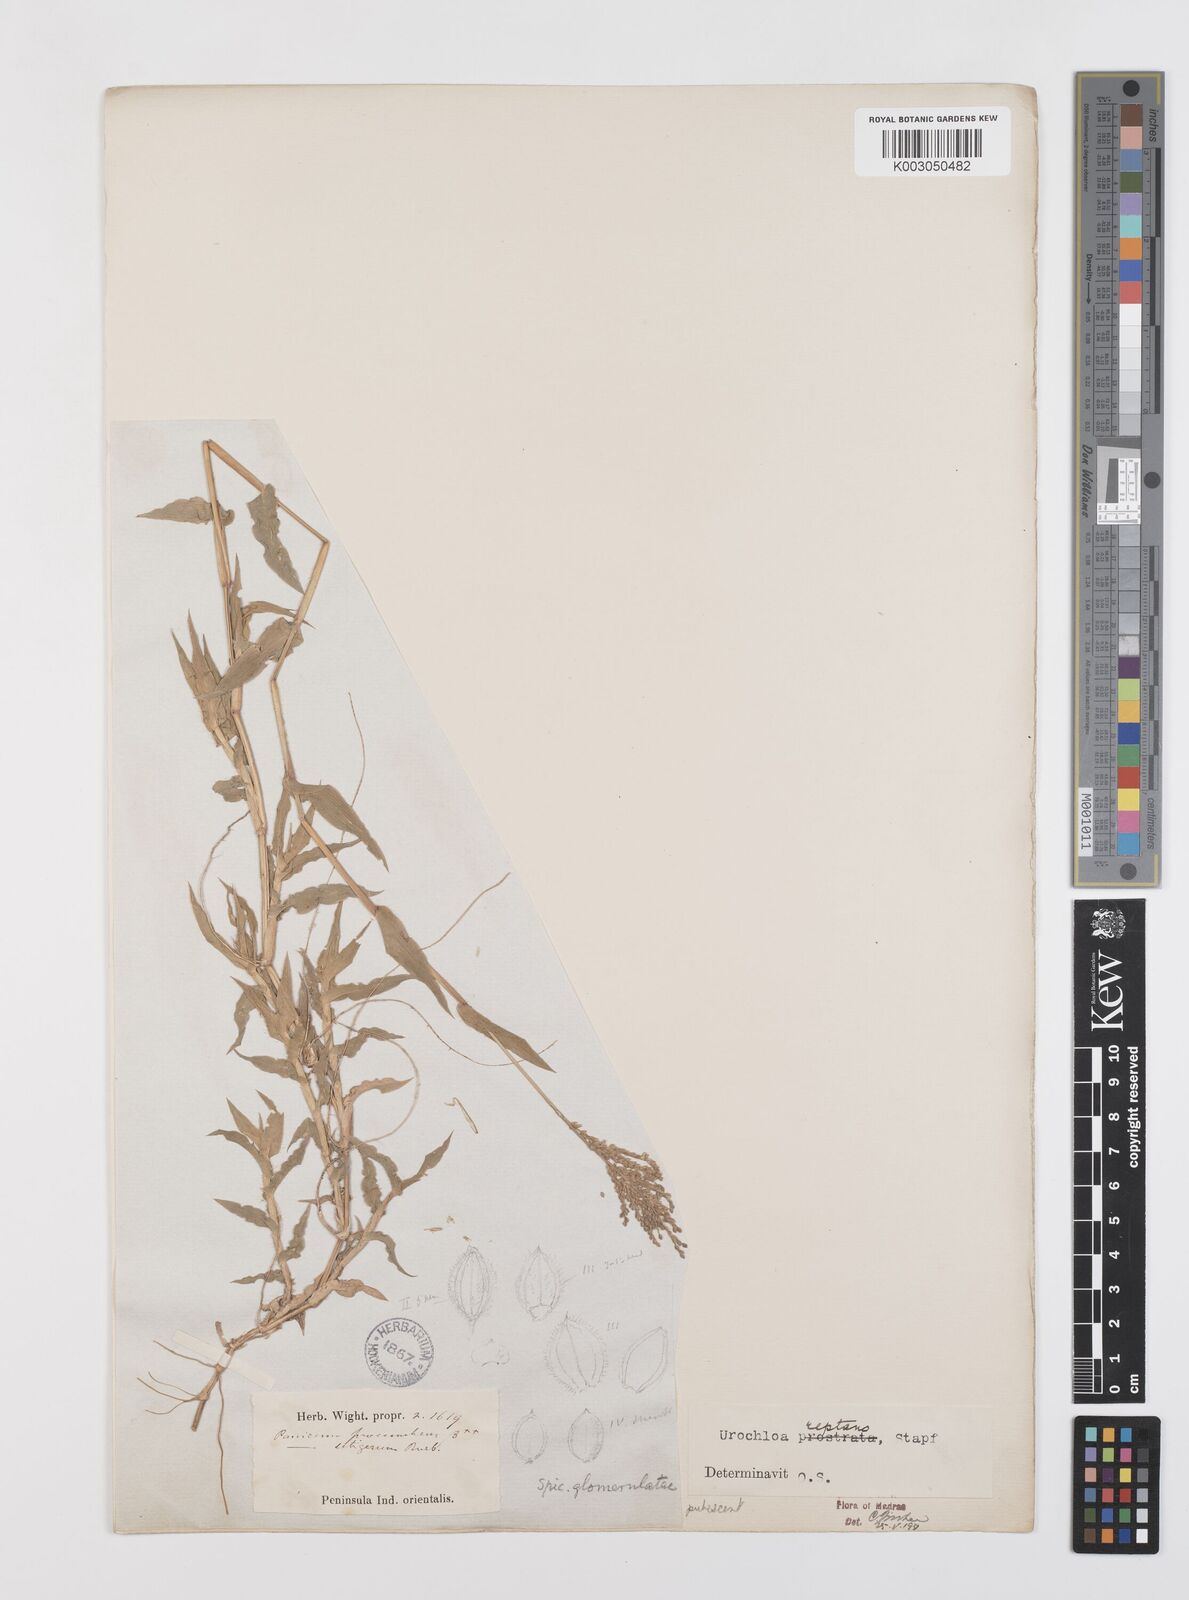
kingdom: Plantae
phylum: Tracheophyta
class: Liliopsida
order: Poales
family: Poaceae
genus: Urochloa
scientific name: Urochloa reptans
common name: Sprawling signalgrass
